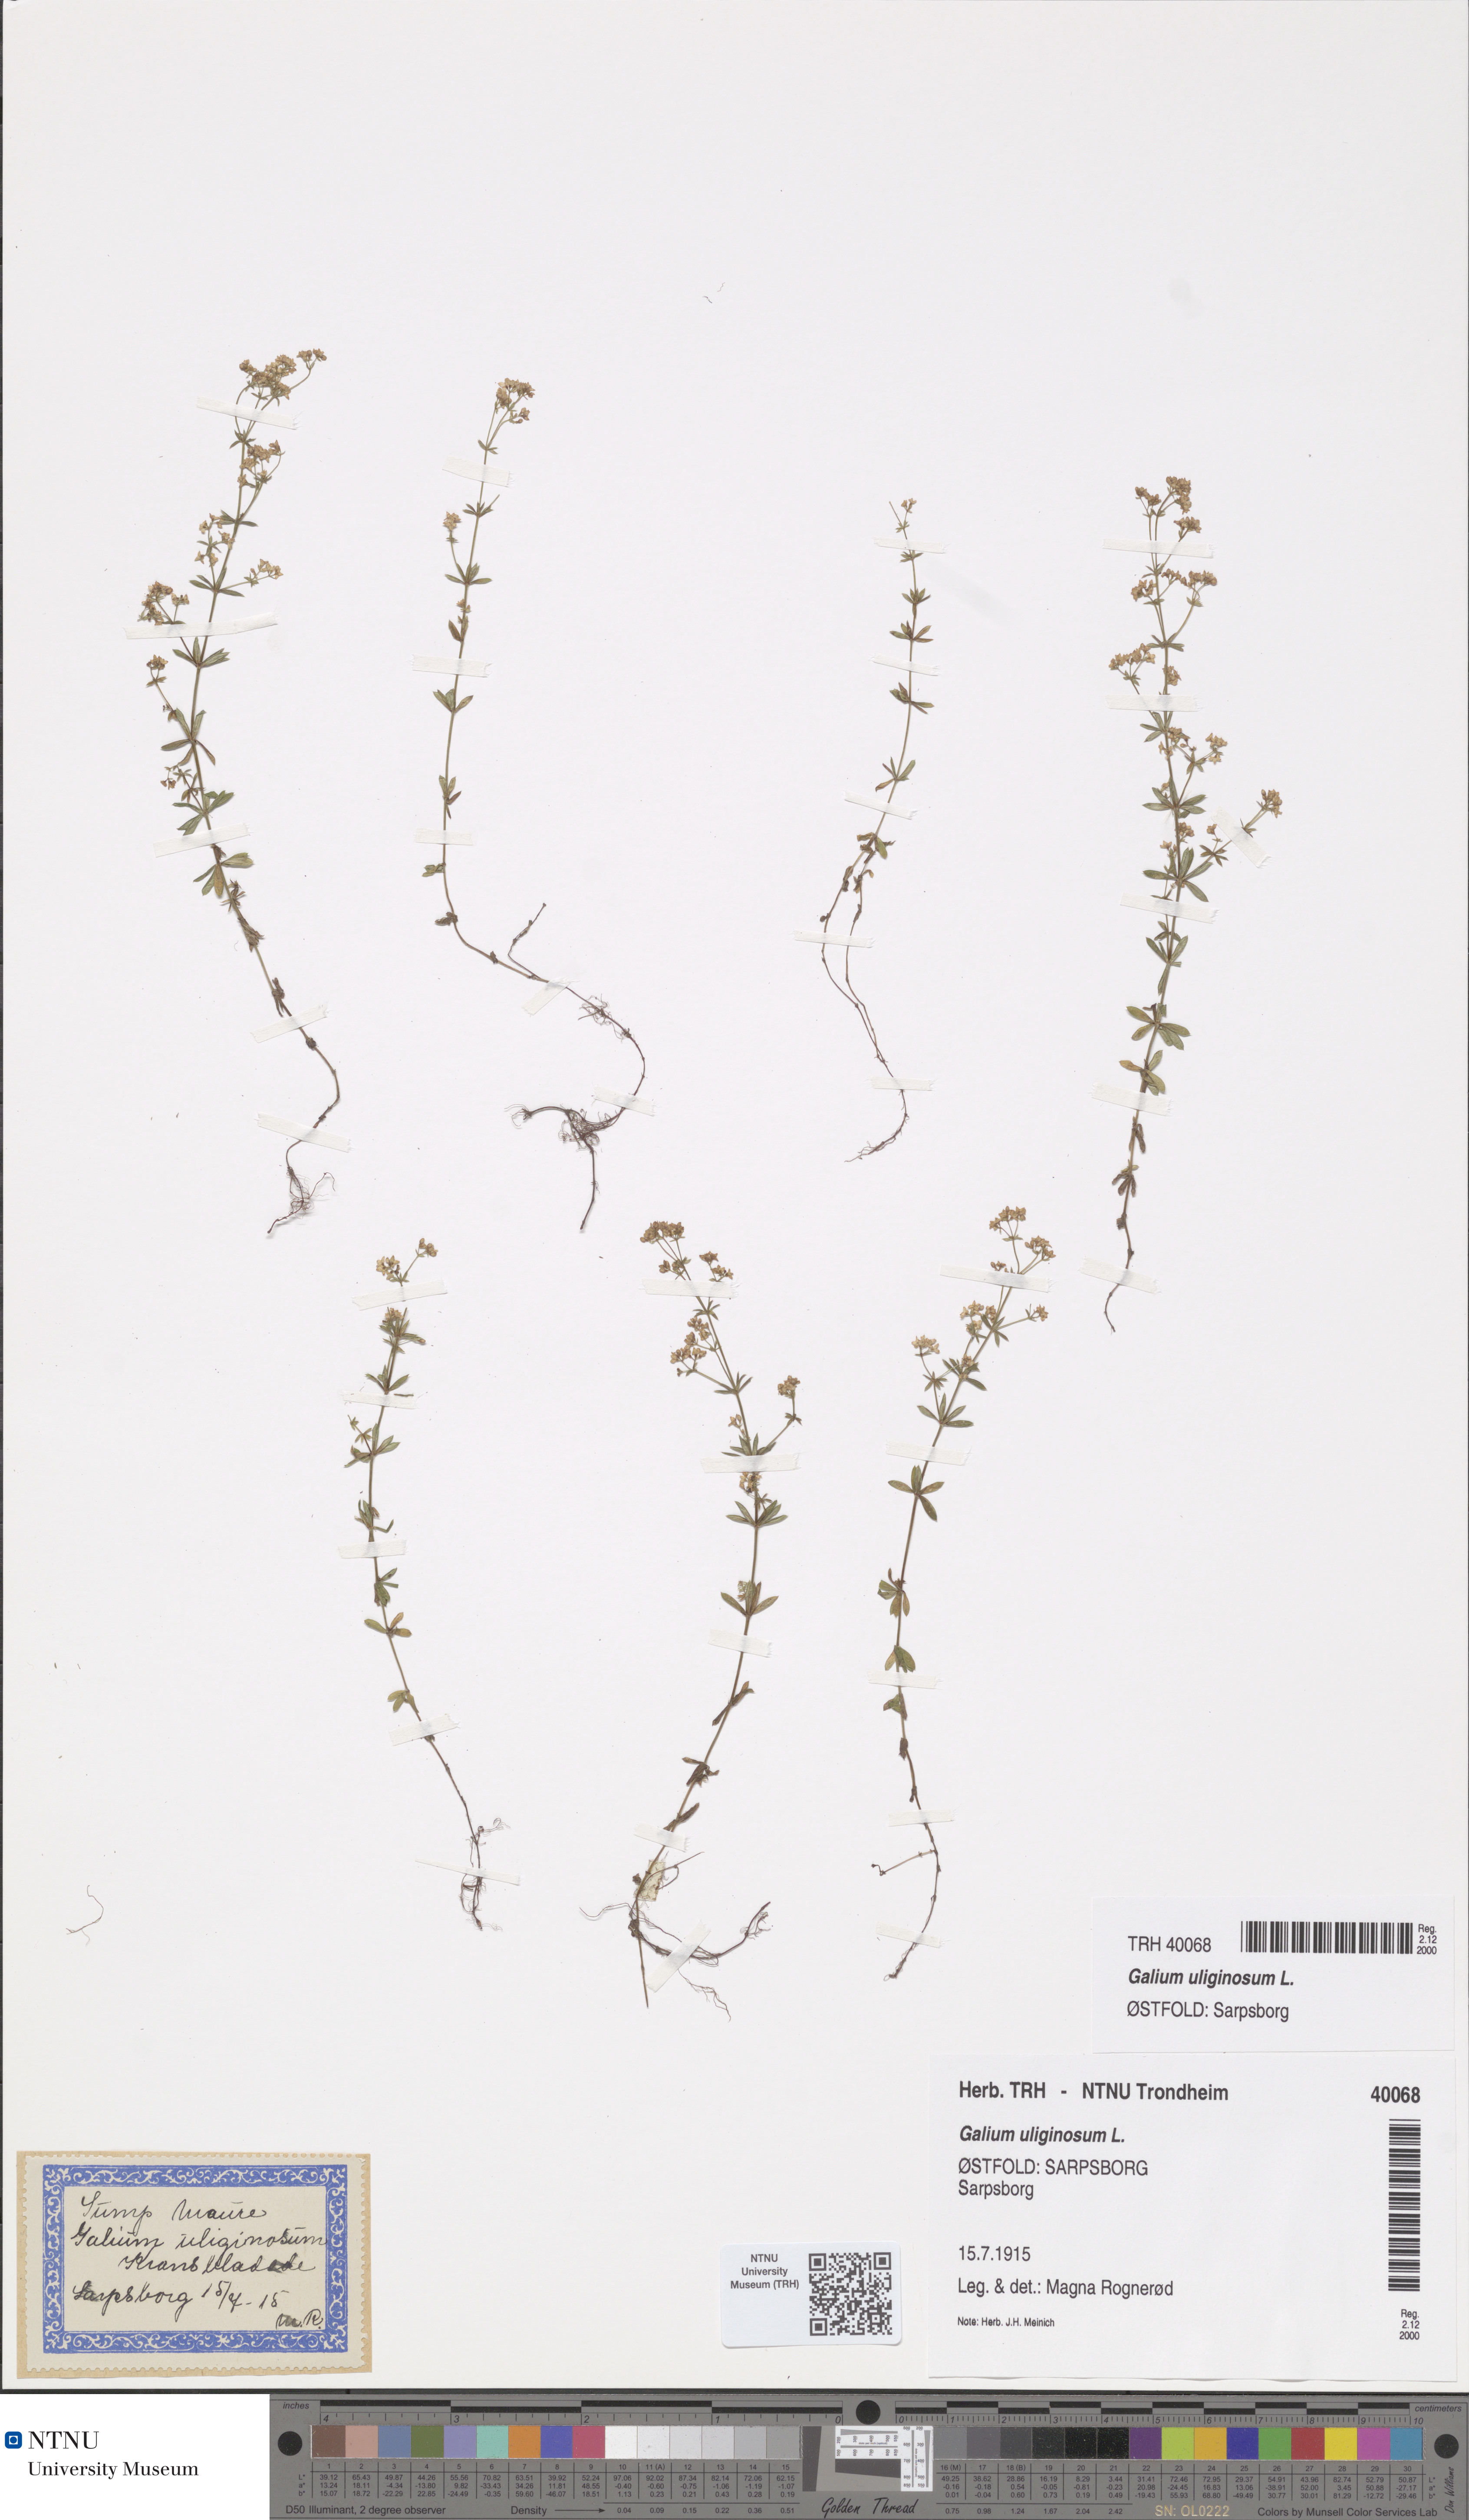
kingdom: Plantae
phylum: Tracheophyta
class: Magnoliopsida
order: Gentianales
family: Rubiaceae
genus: Galium
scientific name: Galium uliginosum
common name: Fen bedstraw
